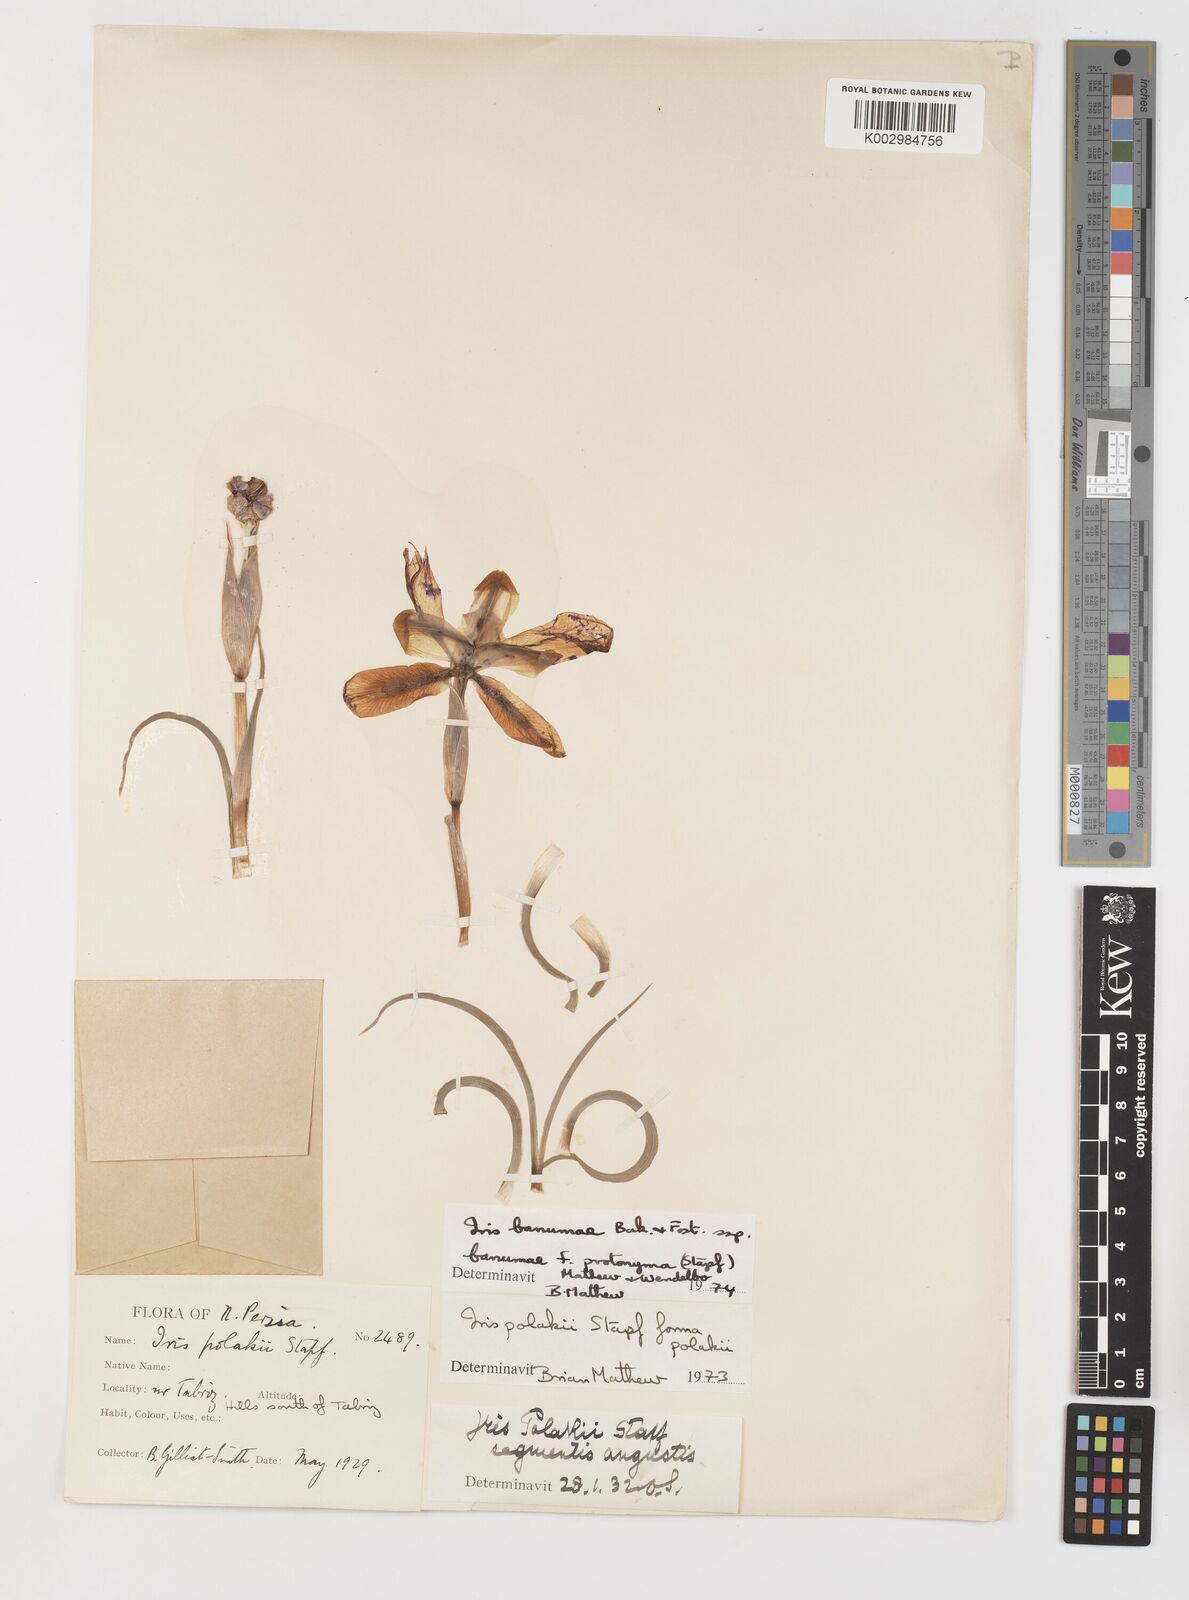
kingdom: Plantae
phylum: Tracheophyta
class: Liliopsida
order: Asparagales
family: Iridaceae
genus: Iris
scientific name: Iris polakii
